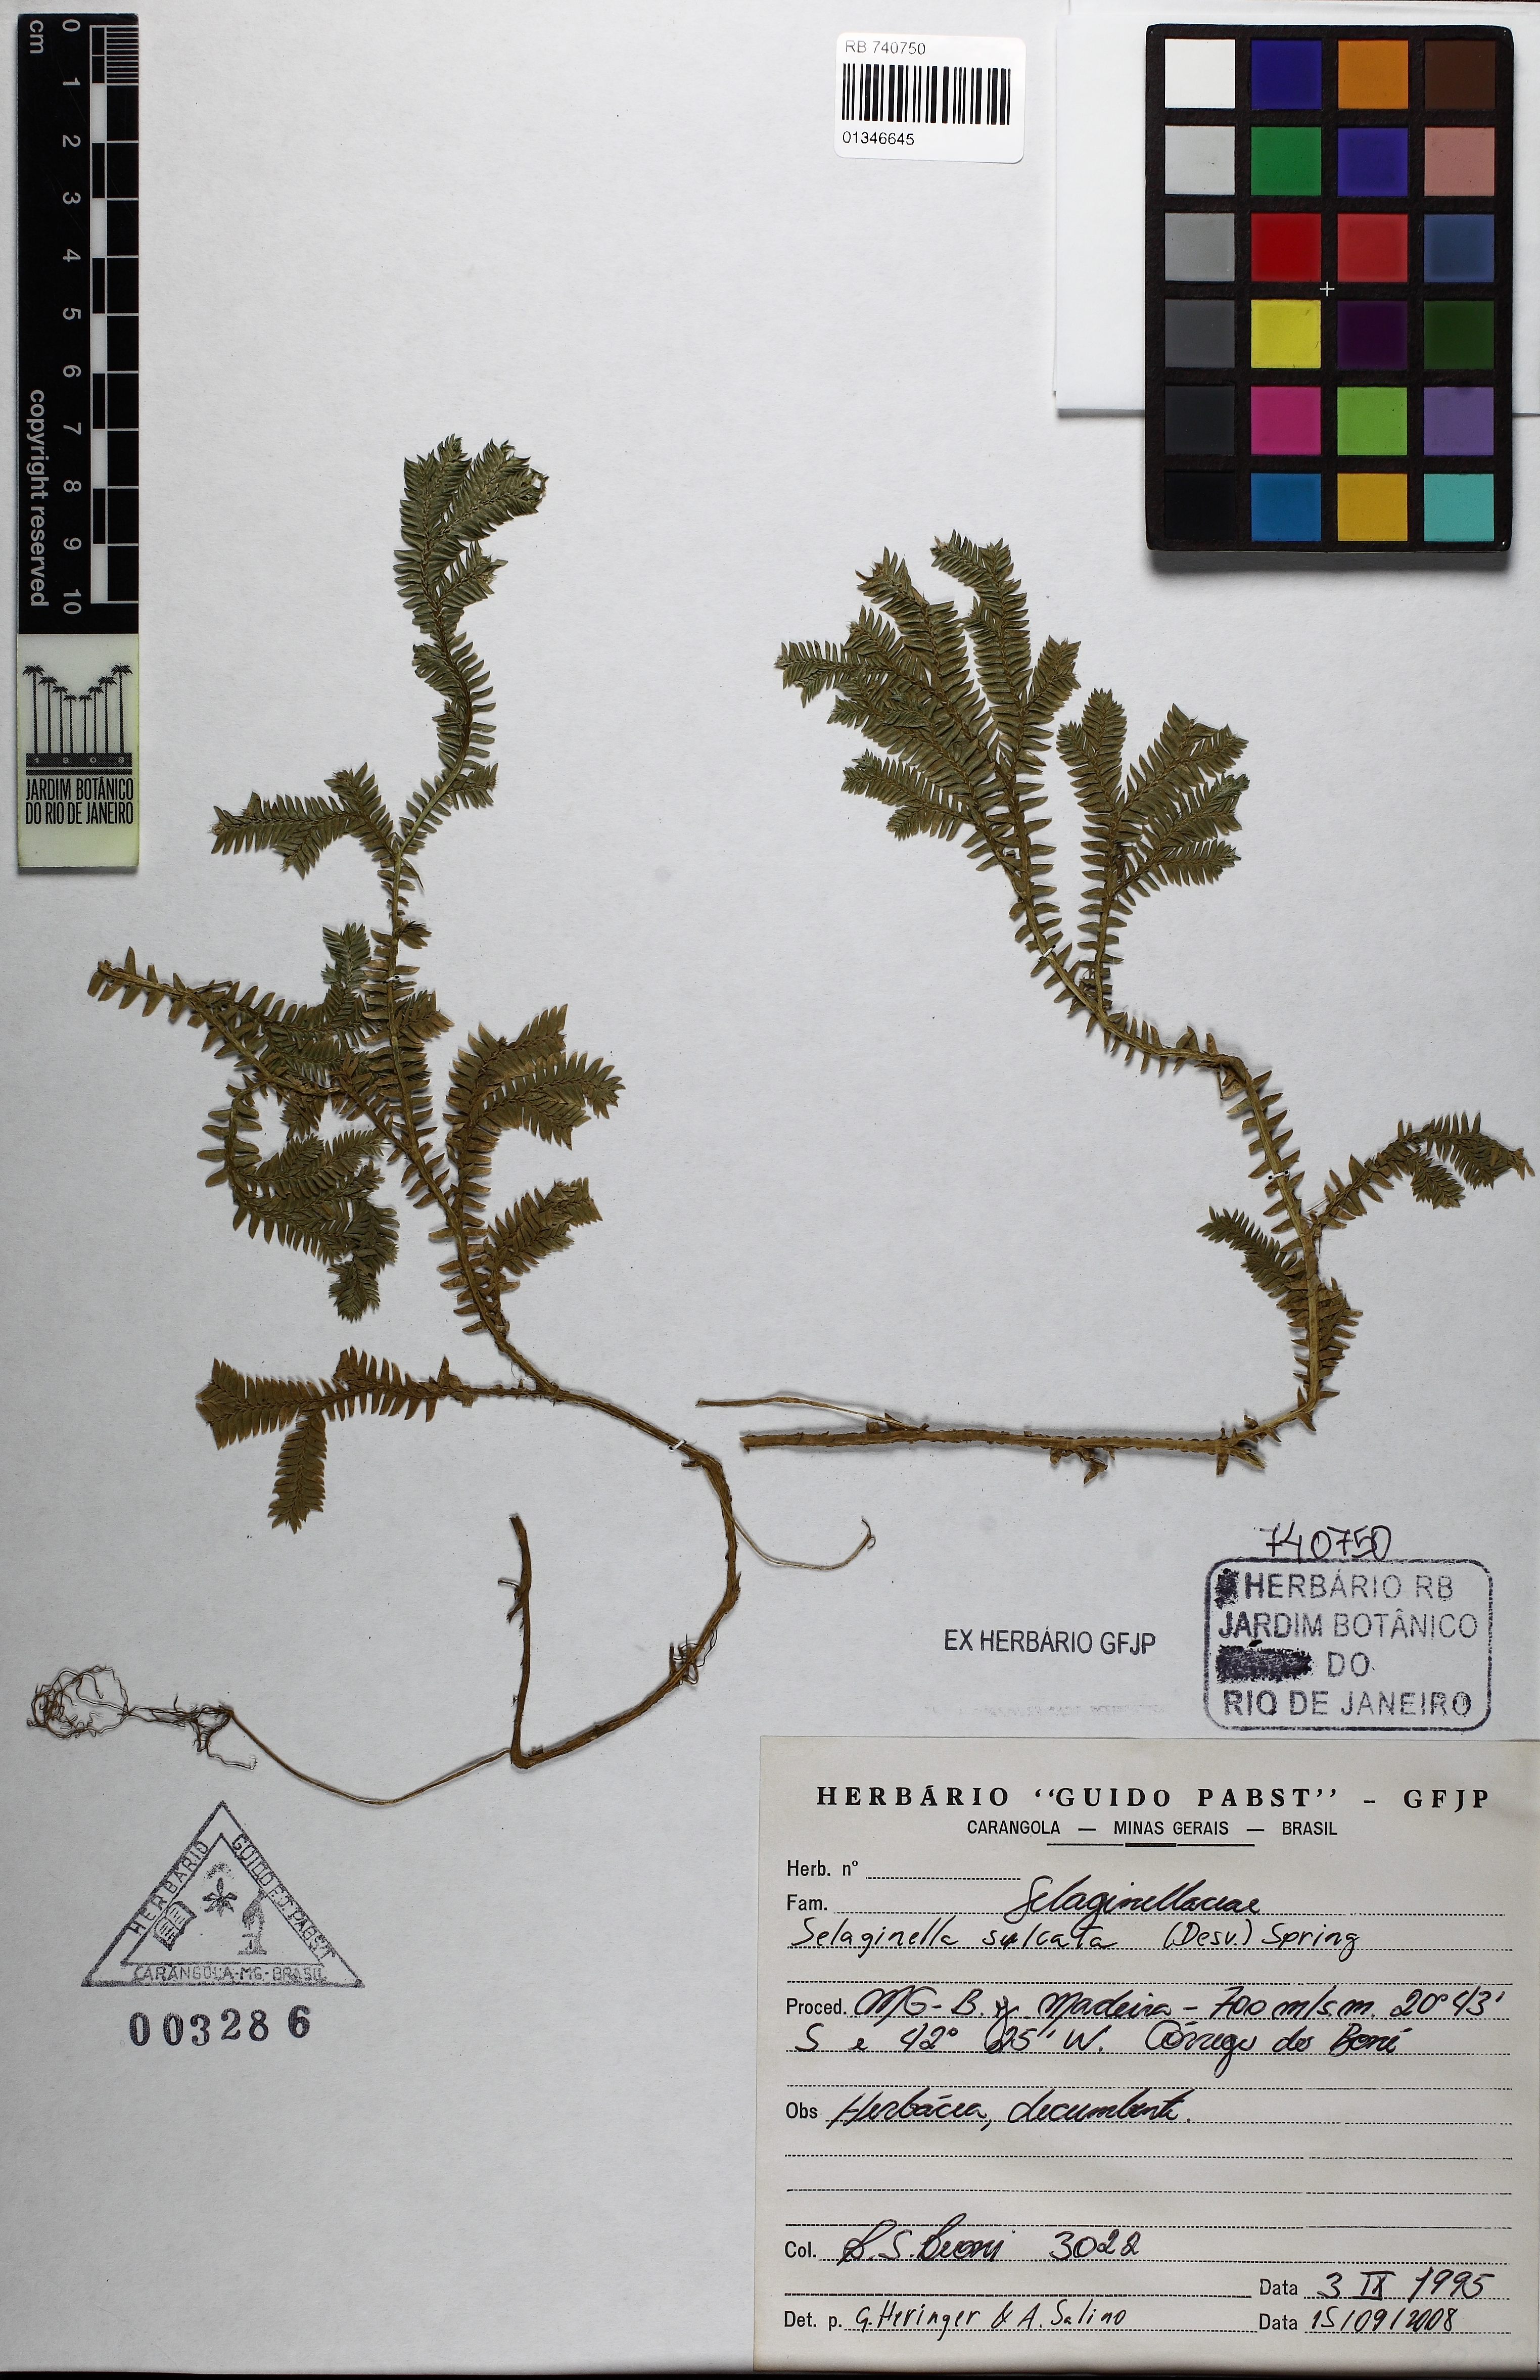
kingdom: Plantae
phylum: Tracheophyta
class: Lycopodiopsida
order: Selaginellales
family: Selaginellaceae
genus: Selaginella
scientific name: Selaginella sulcata
